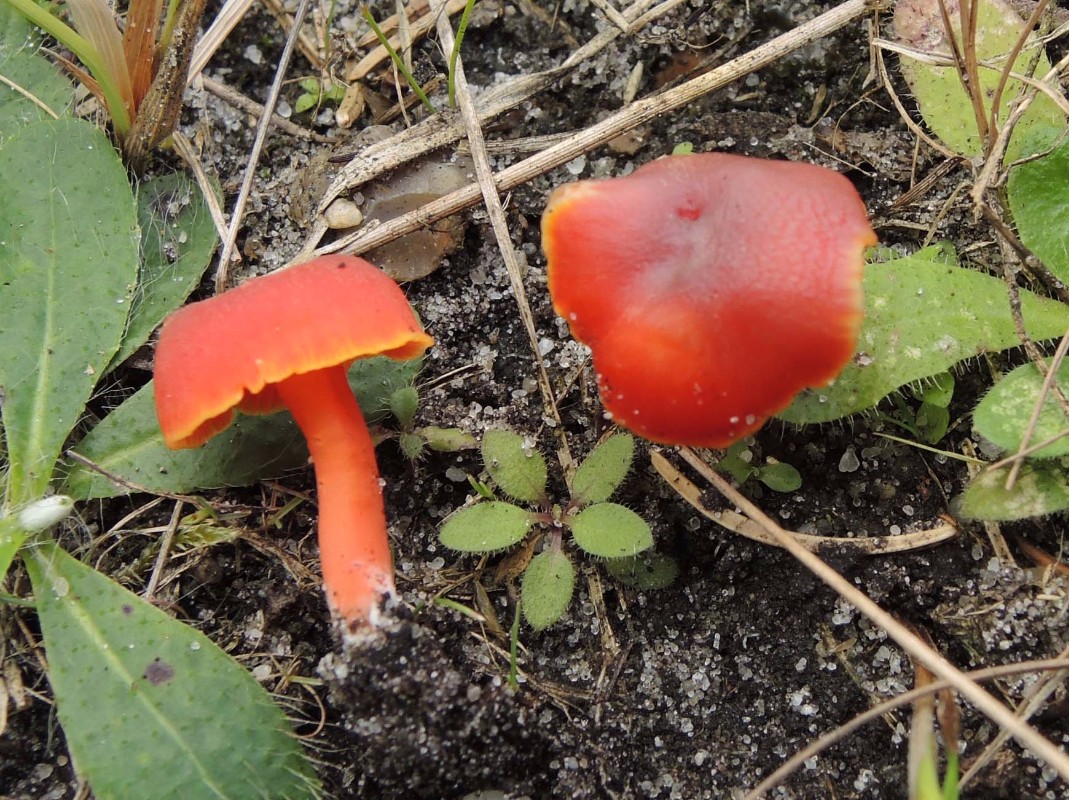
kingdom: Fungi
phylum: Basidiomycota
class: Agaricomycetes
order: Agaricales
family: Hygrophoraceae
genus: Hygrocybe
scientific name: Hygrocybe phaeococcinea
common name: sortdugget vokshat
